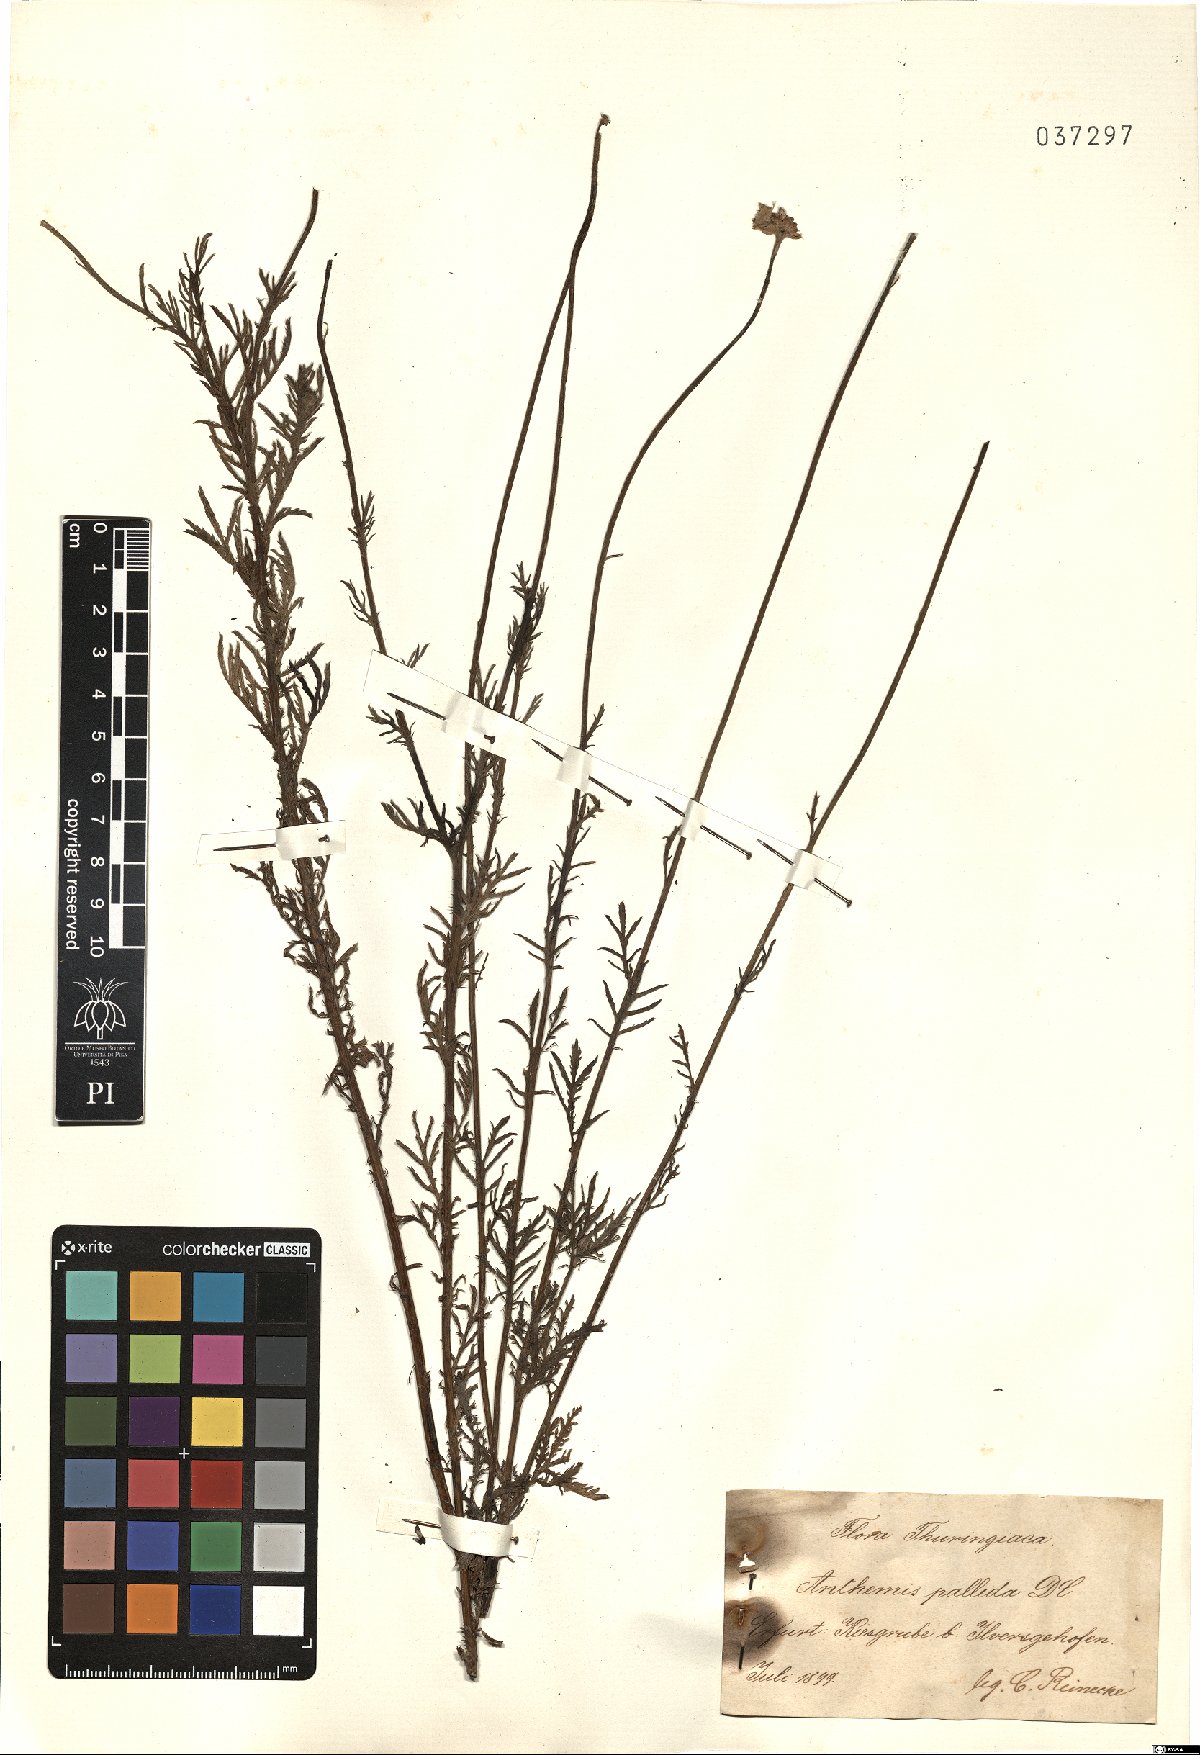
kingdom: Plantae
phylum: Tracheophyta
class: Magnoliopsida
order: Asterales
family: Asteraceae
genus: Cota
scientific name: Cota tinctoria
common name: Golden chamomile
